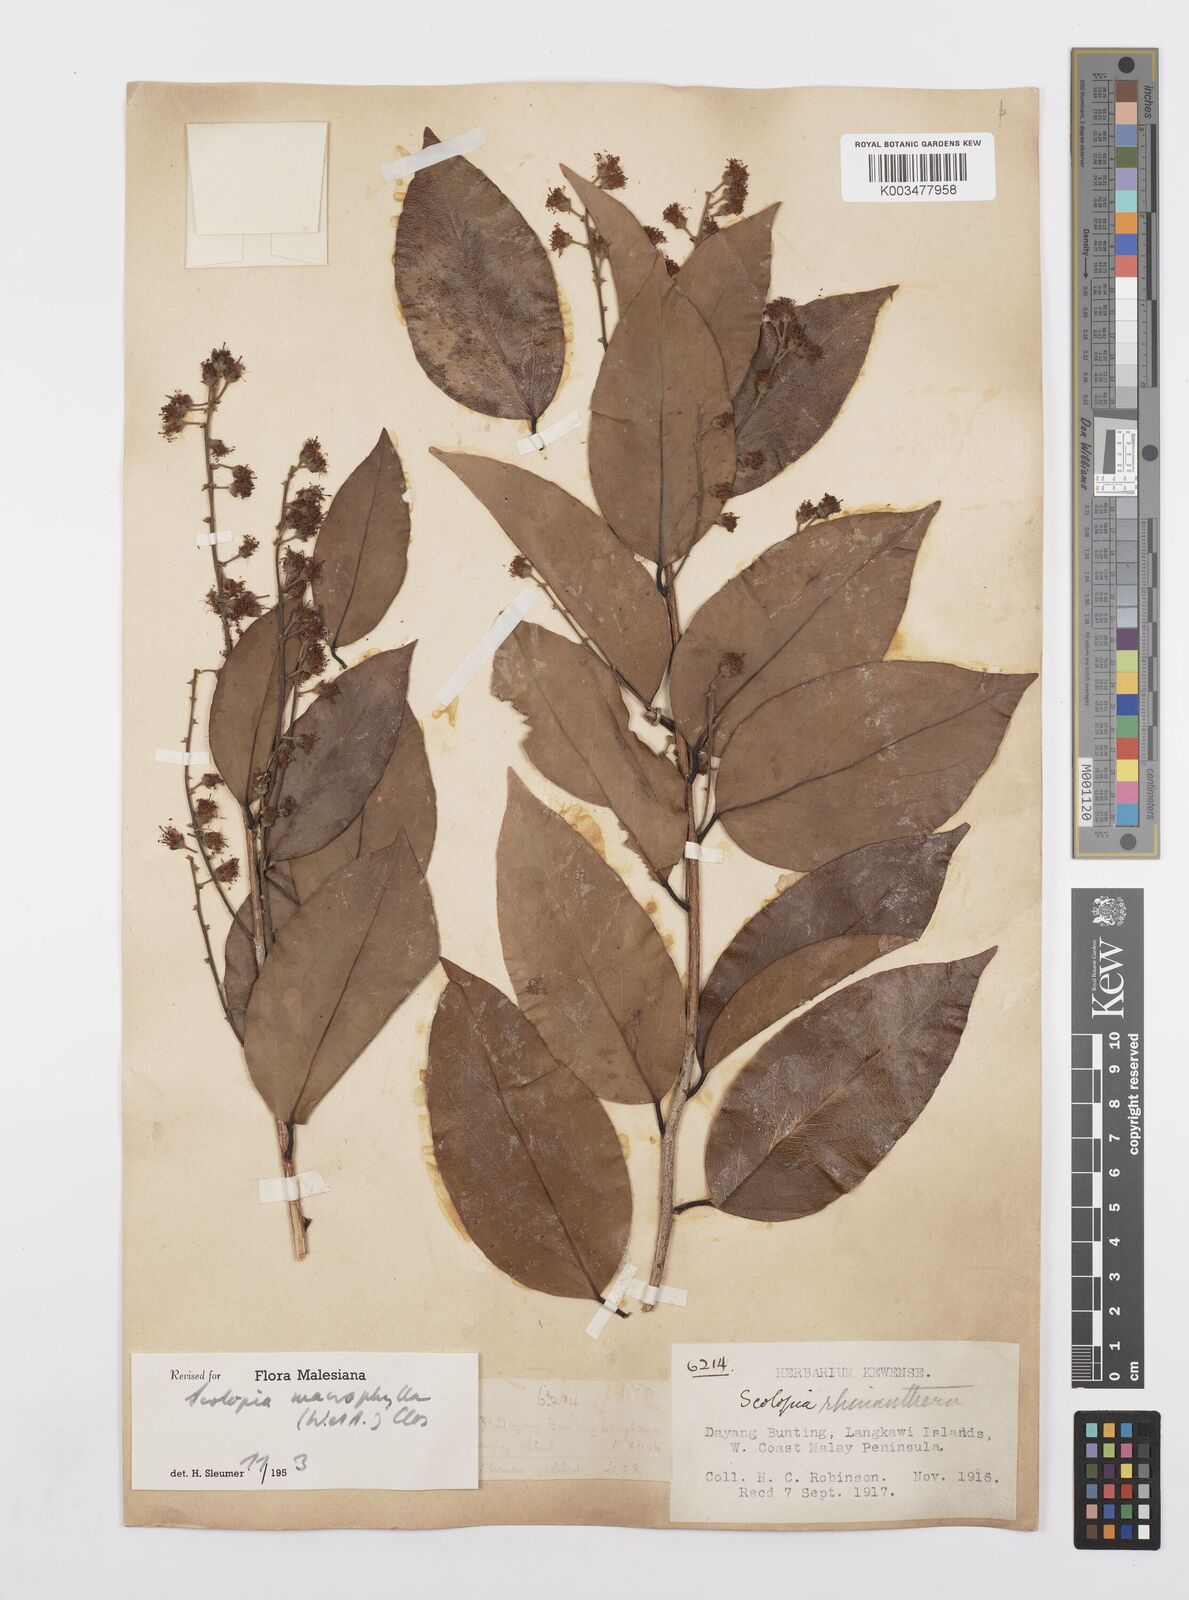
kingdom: Plantae
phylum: Tracheophyta
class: Magnoliopsida
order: Malpighiales
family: Salicaceae
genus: Scolopia
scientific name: Scolopia macrophylla
